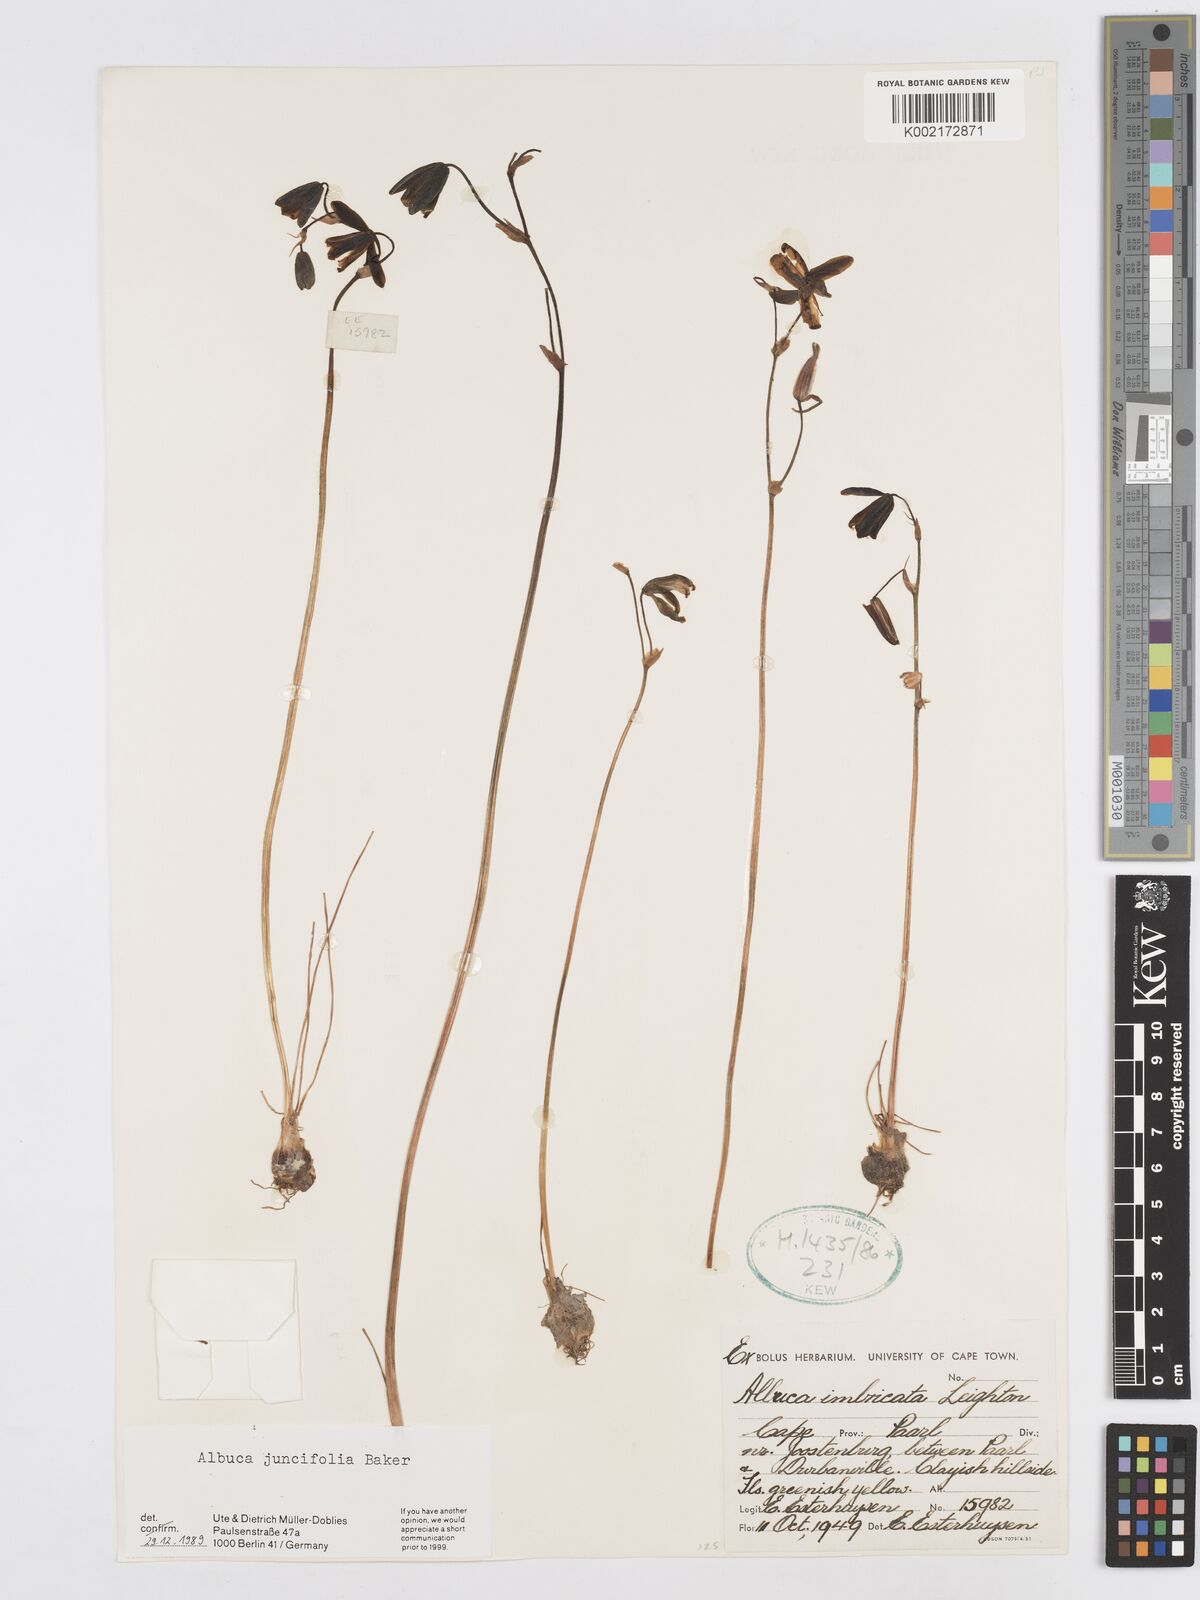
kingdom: Plantae
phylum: Tracheophyta
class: Liliopsida
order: Asparagales
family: Asparagaceae
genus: Albuca
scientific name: Albuca juncifolia
